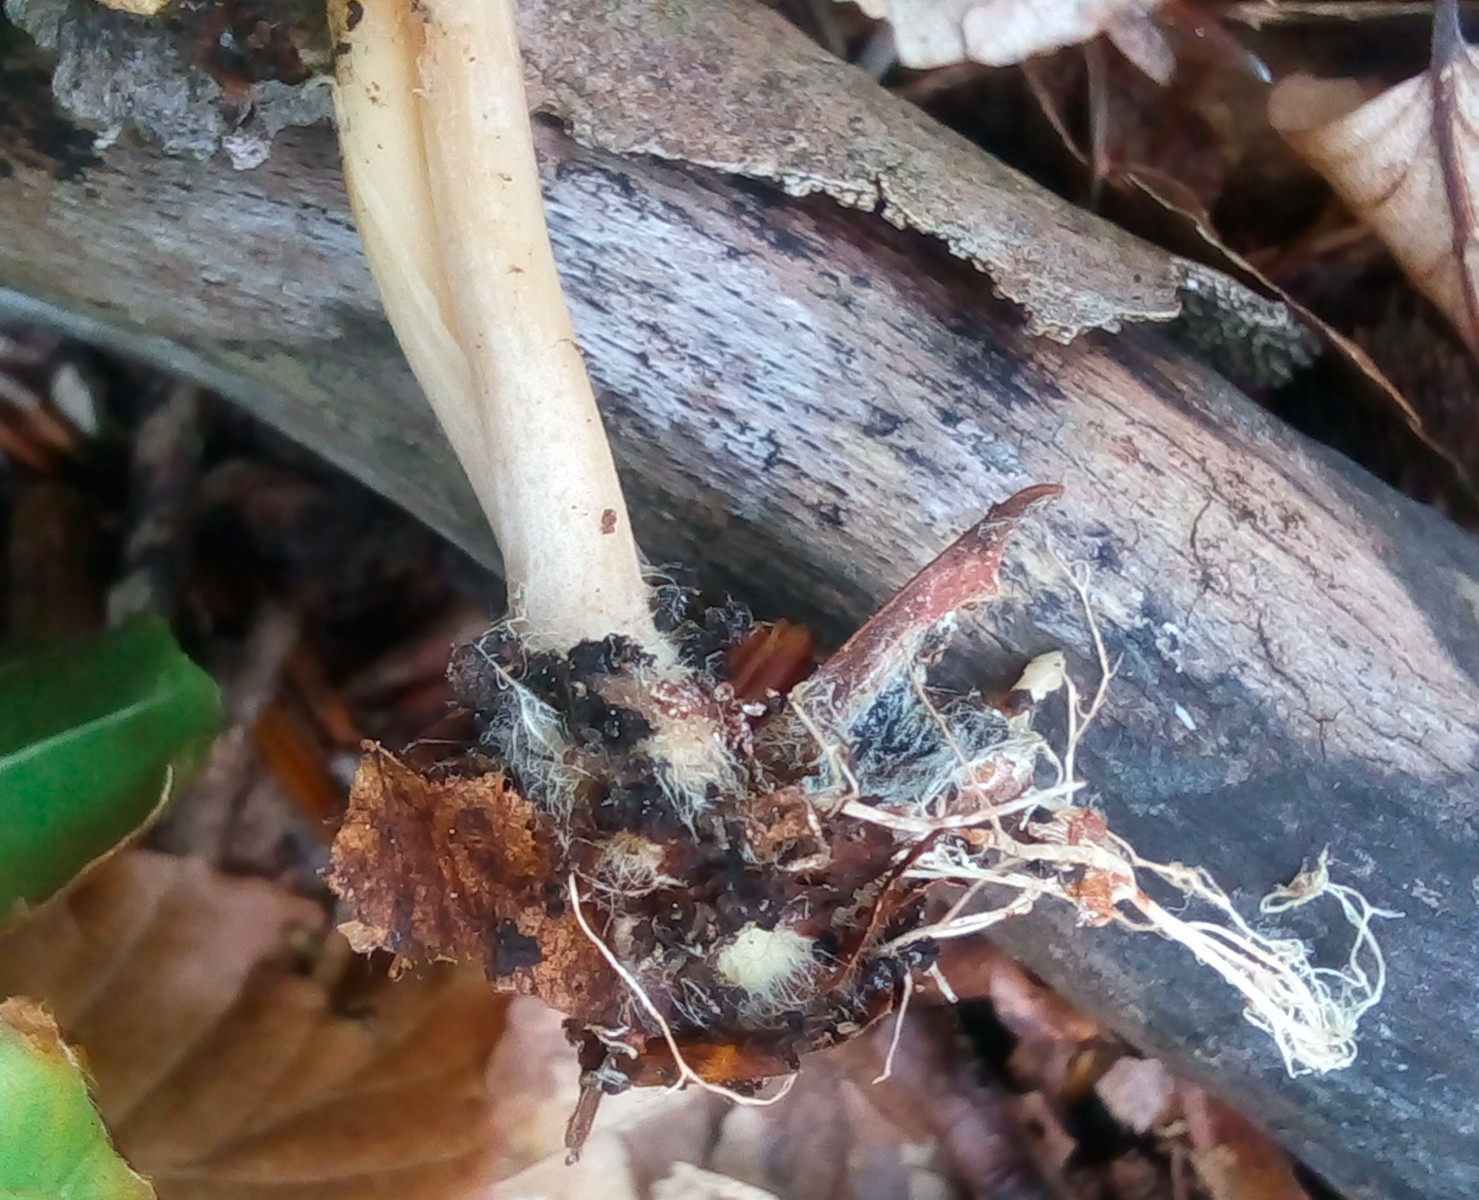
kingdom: Fungi
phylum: Basidiomycota
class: Agaricomycetes
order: Agaricales
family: Omphalotaceae
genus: Gymnopus
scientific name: Gymnopus dryophilus
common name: løv-fladhat
